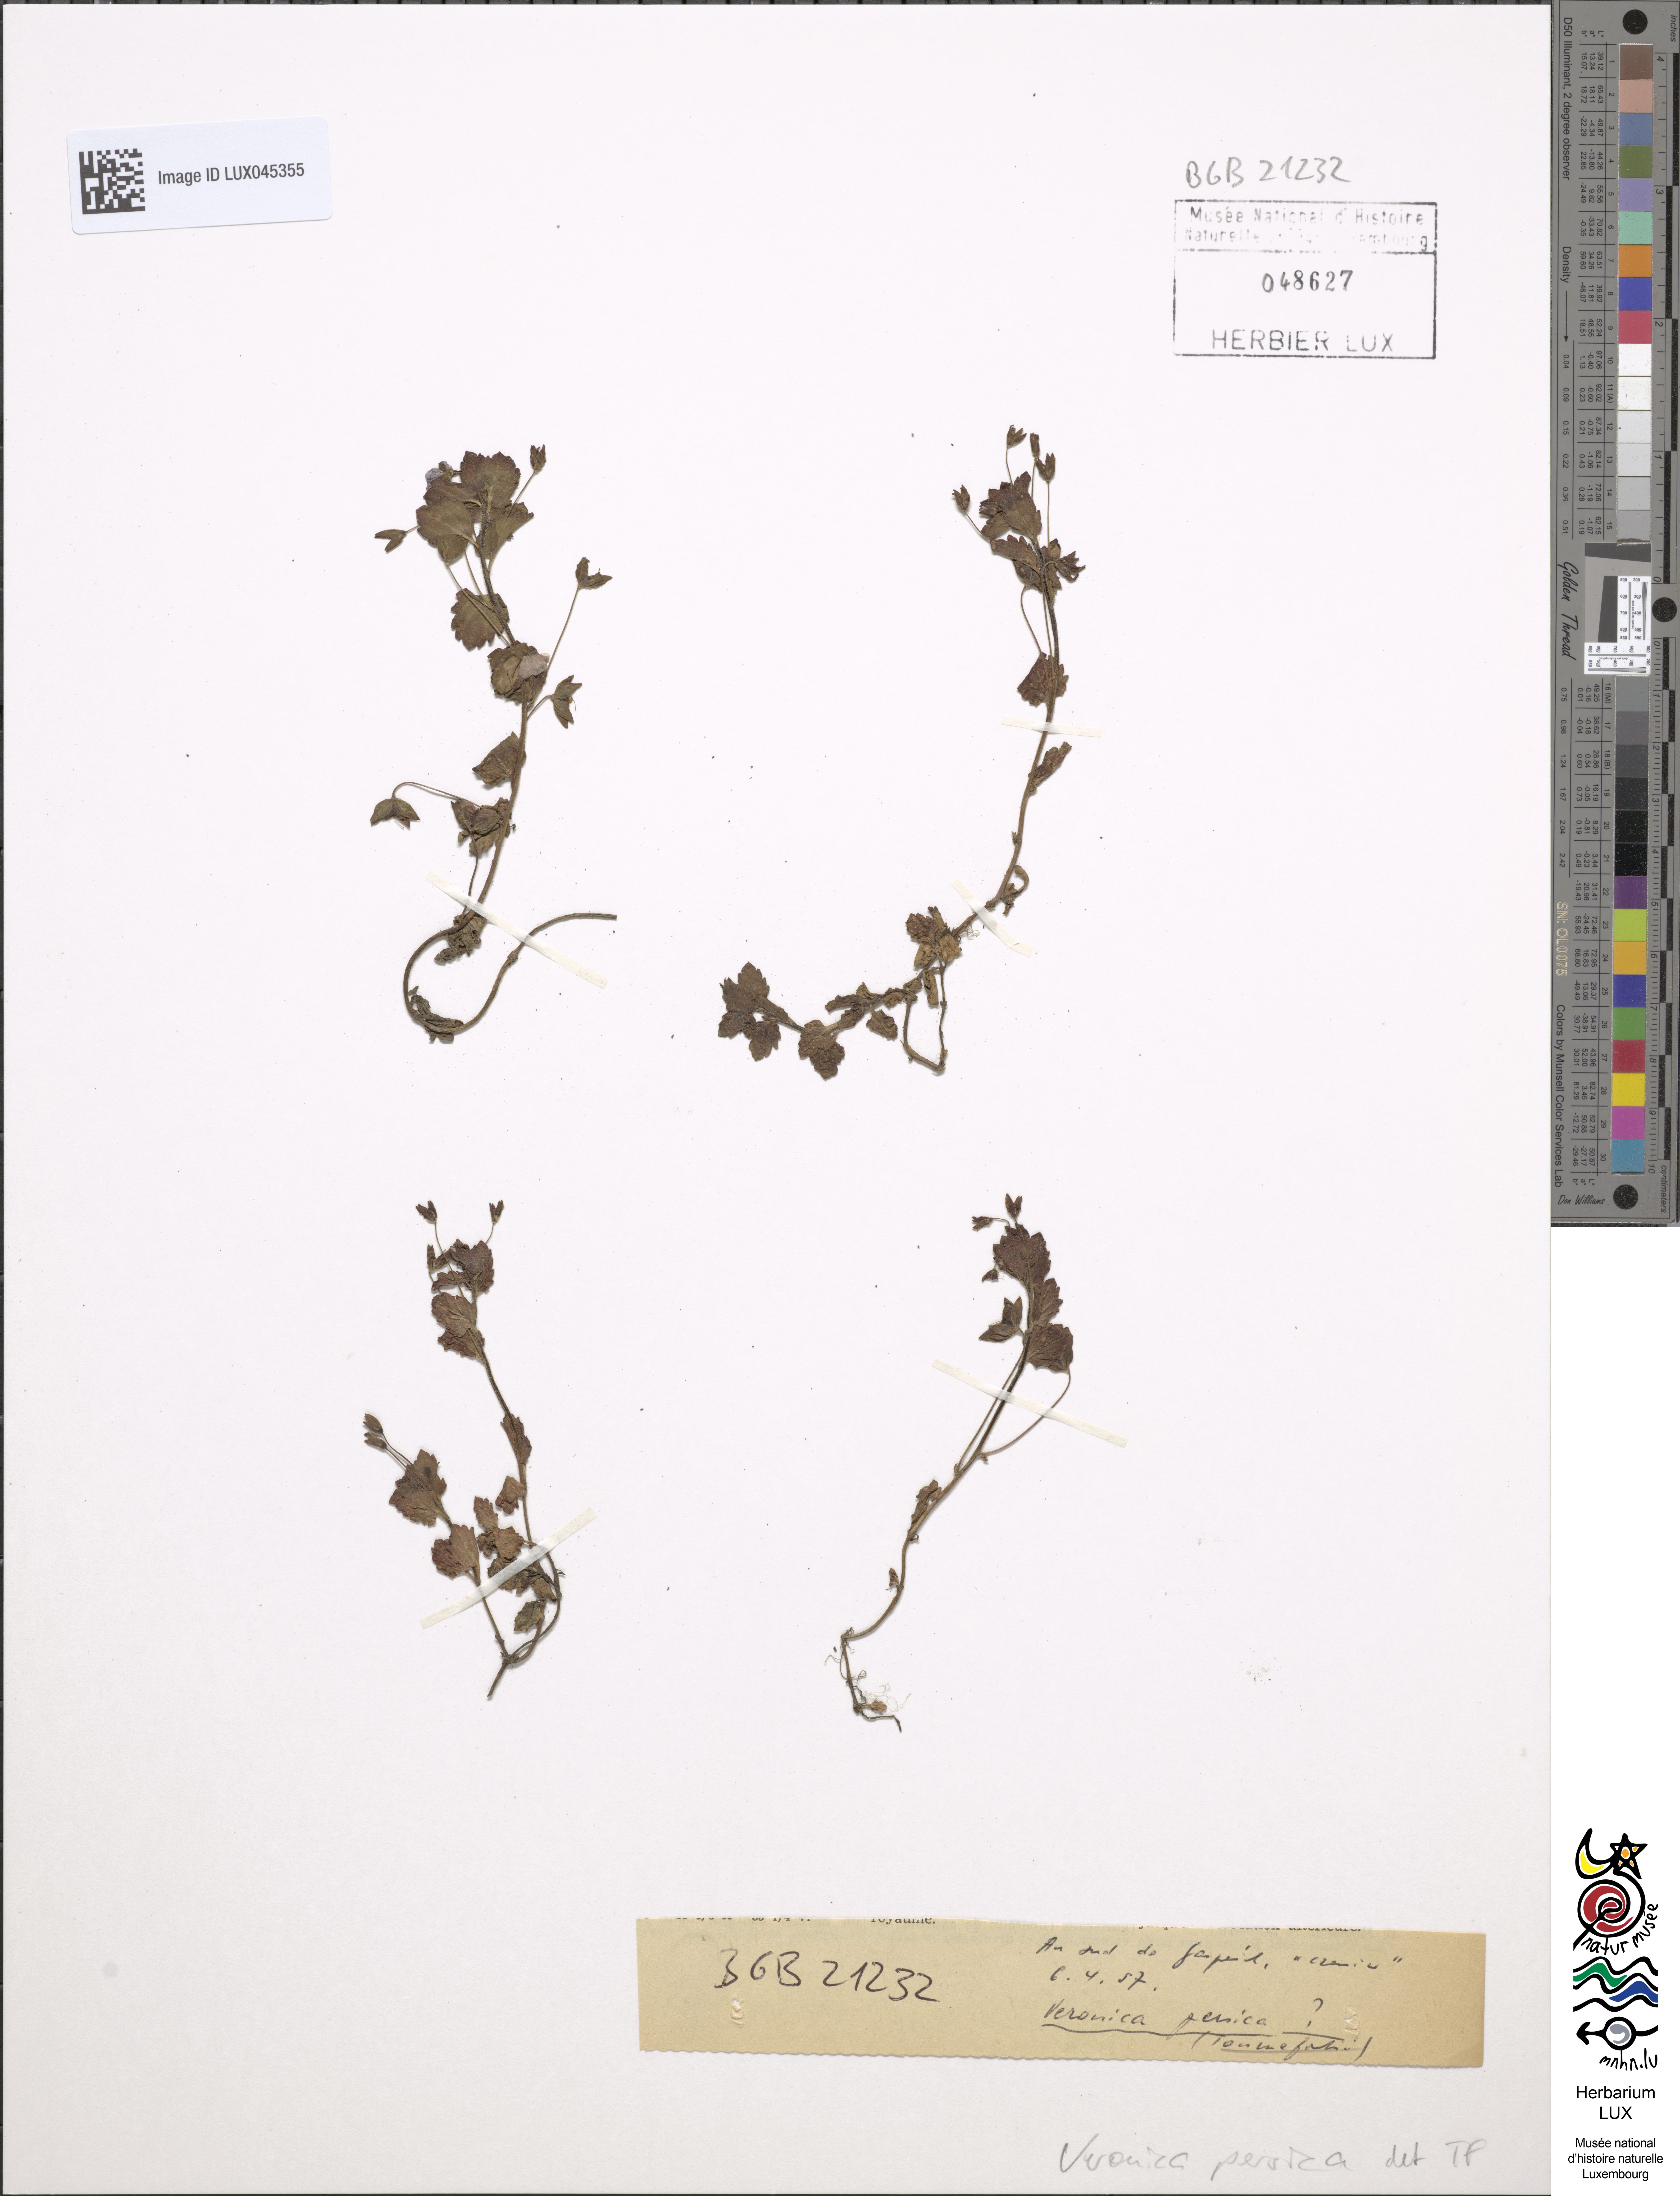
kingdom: Plantae
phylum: Tracheophyta
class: Magnoliopsida
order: Lamiales
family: Plantaginaceae
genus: Veronica
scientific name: Veronica persica
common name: Common field-speedwell
